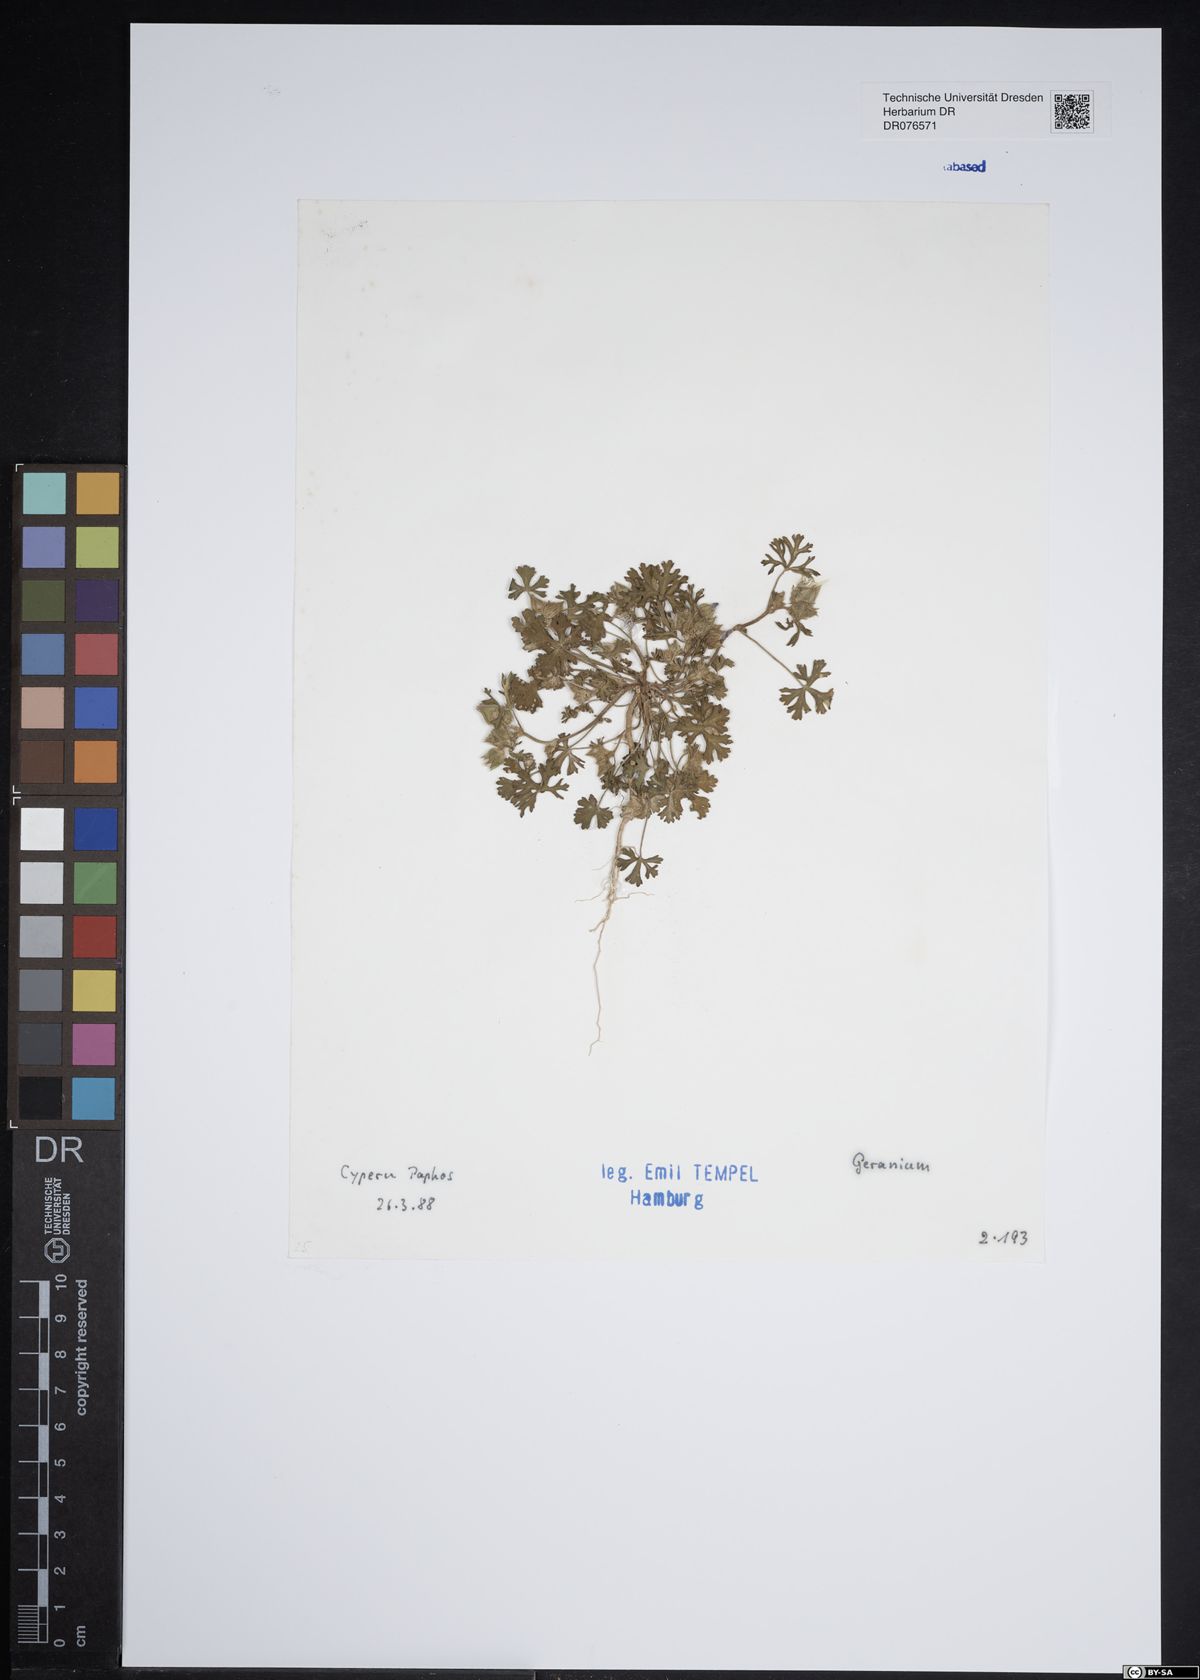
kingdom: Plantae
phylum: Tracheophyta
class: Magnoliopsida
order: Geraniales
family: Geraniaceae
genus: Geranium
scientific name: Geranium
